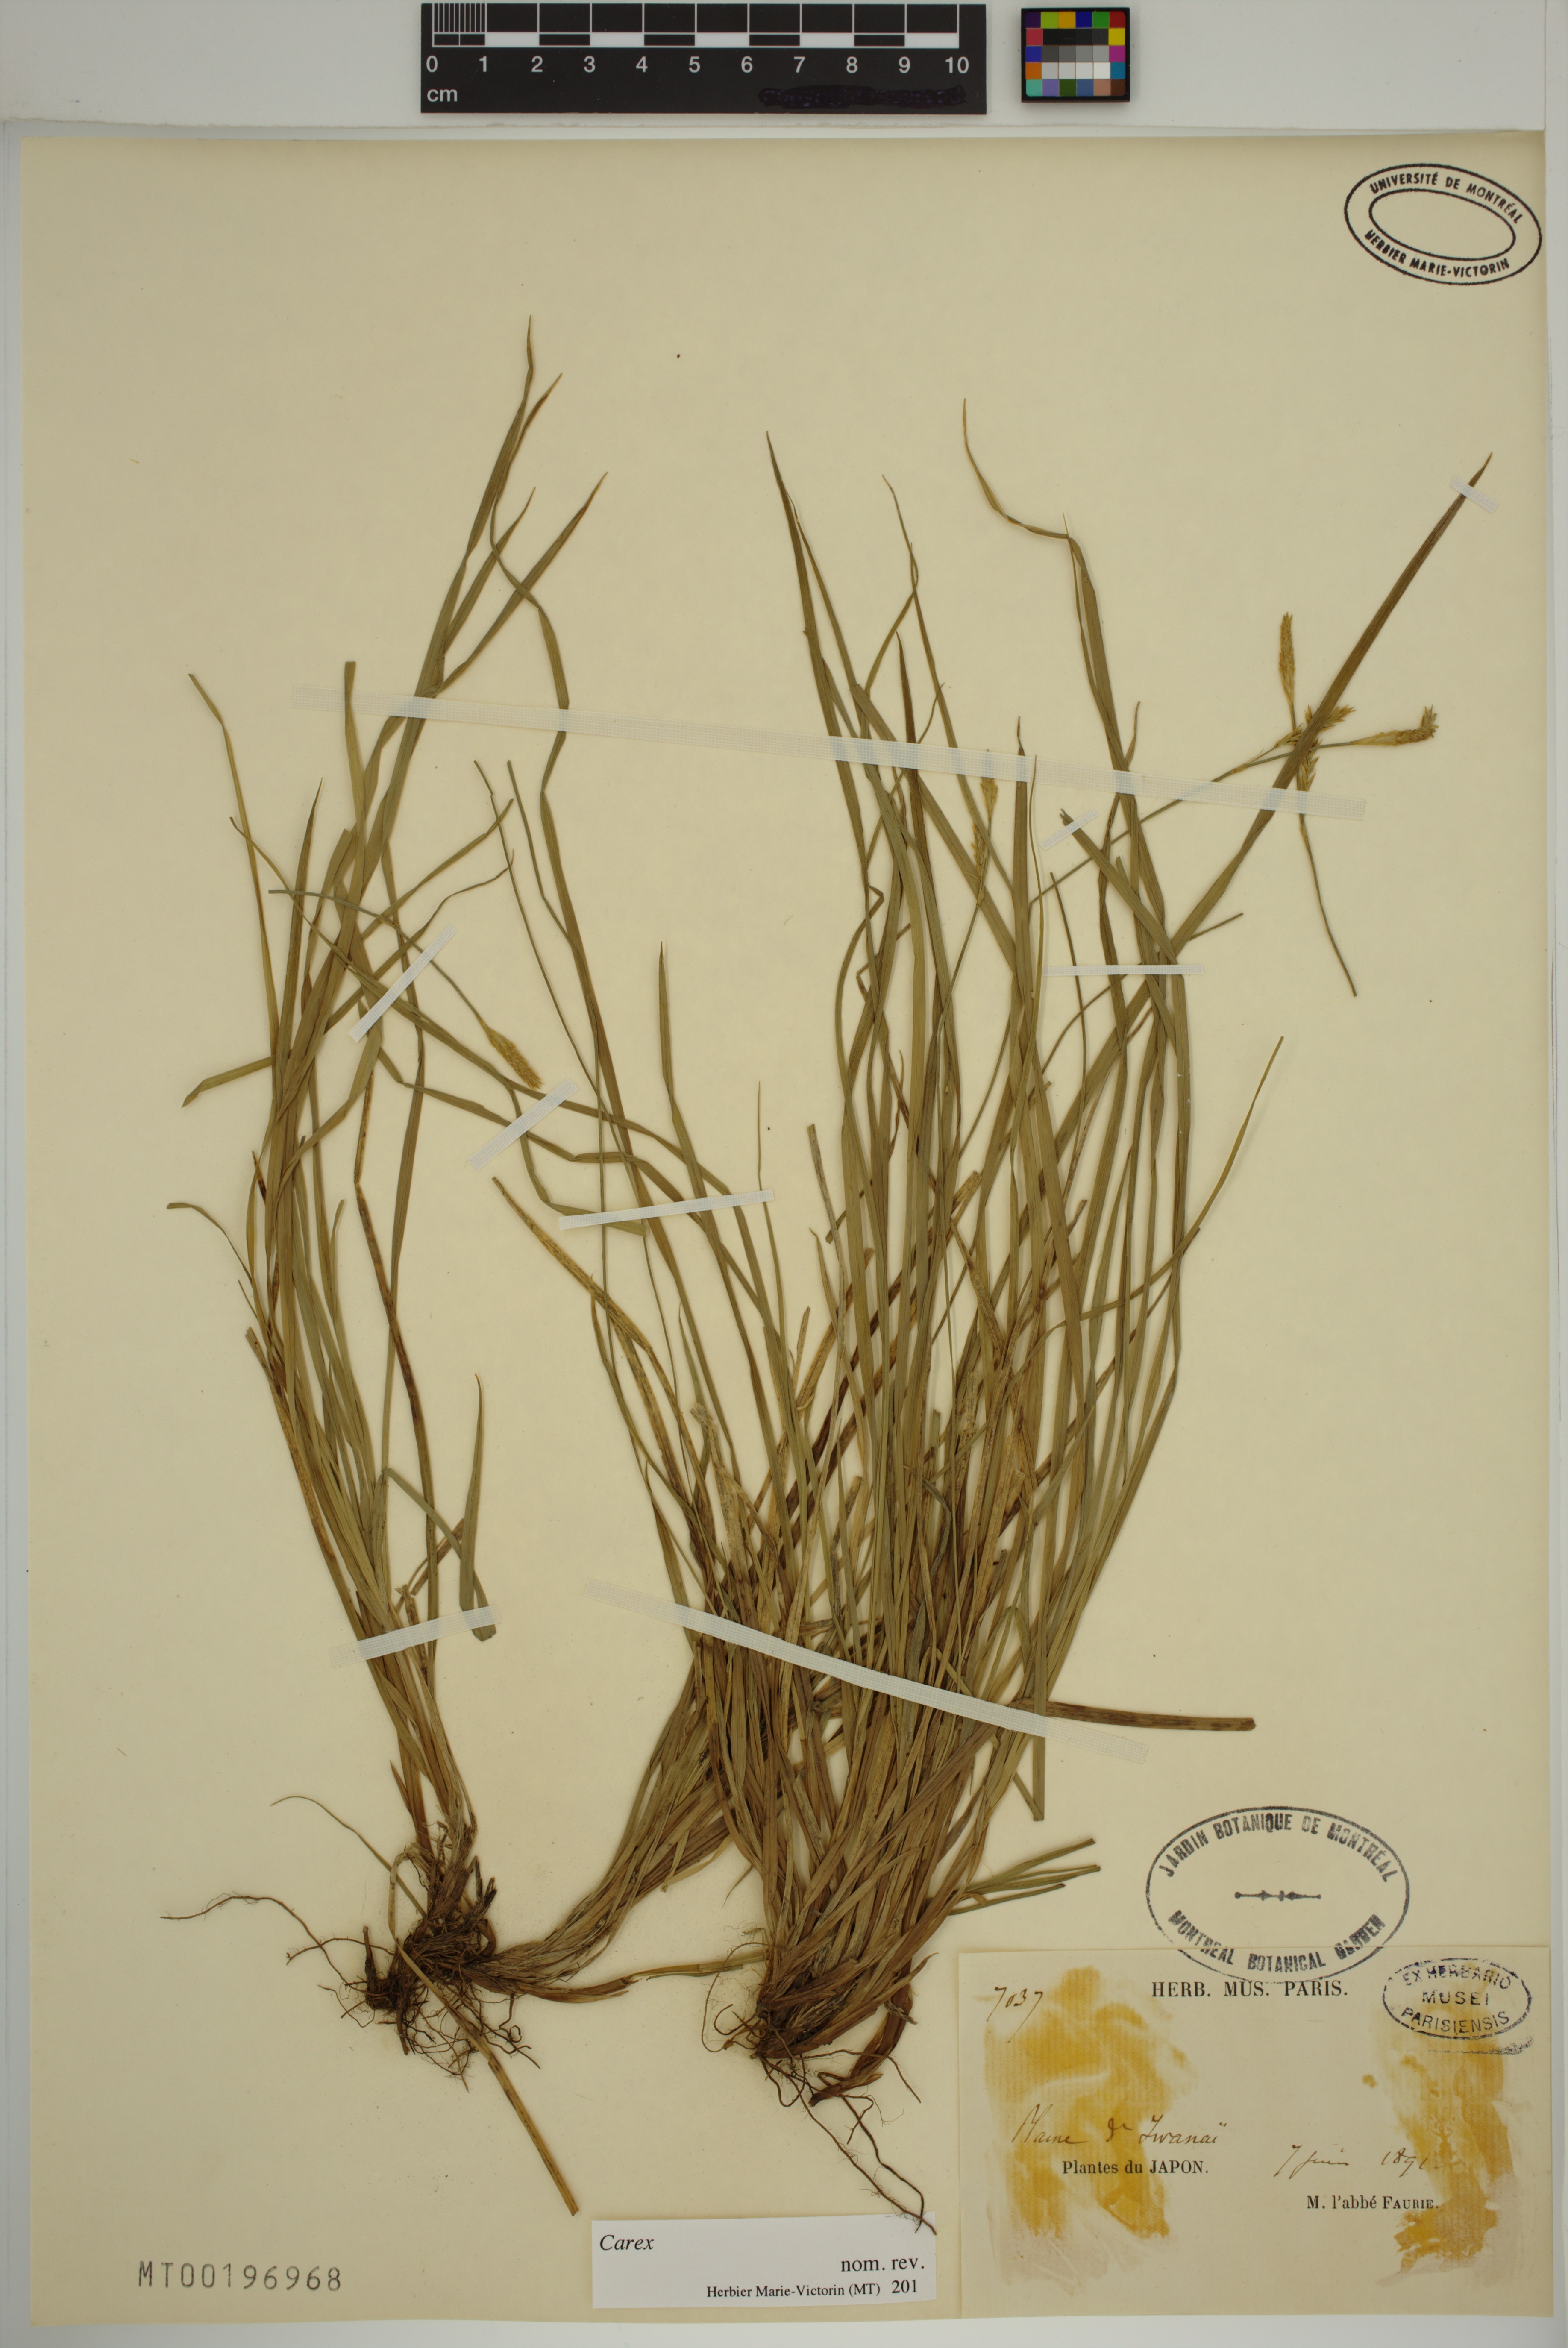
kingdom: Plantae
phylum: Tracheophyta
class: Liliopsida
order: Poales
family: Cyperaceae
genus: Carex
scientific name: Carex
